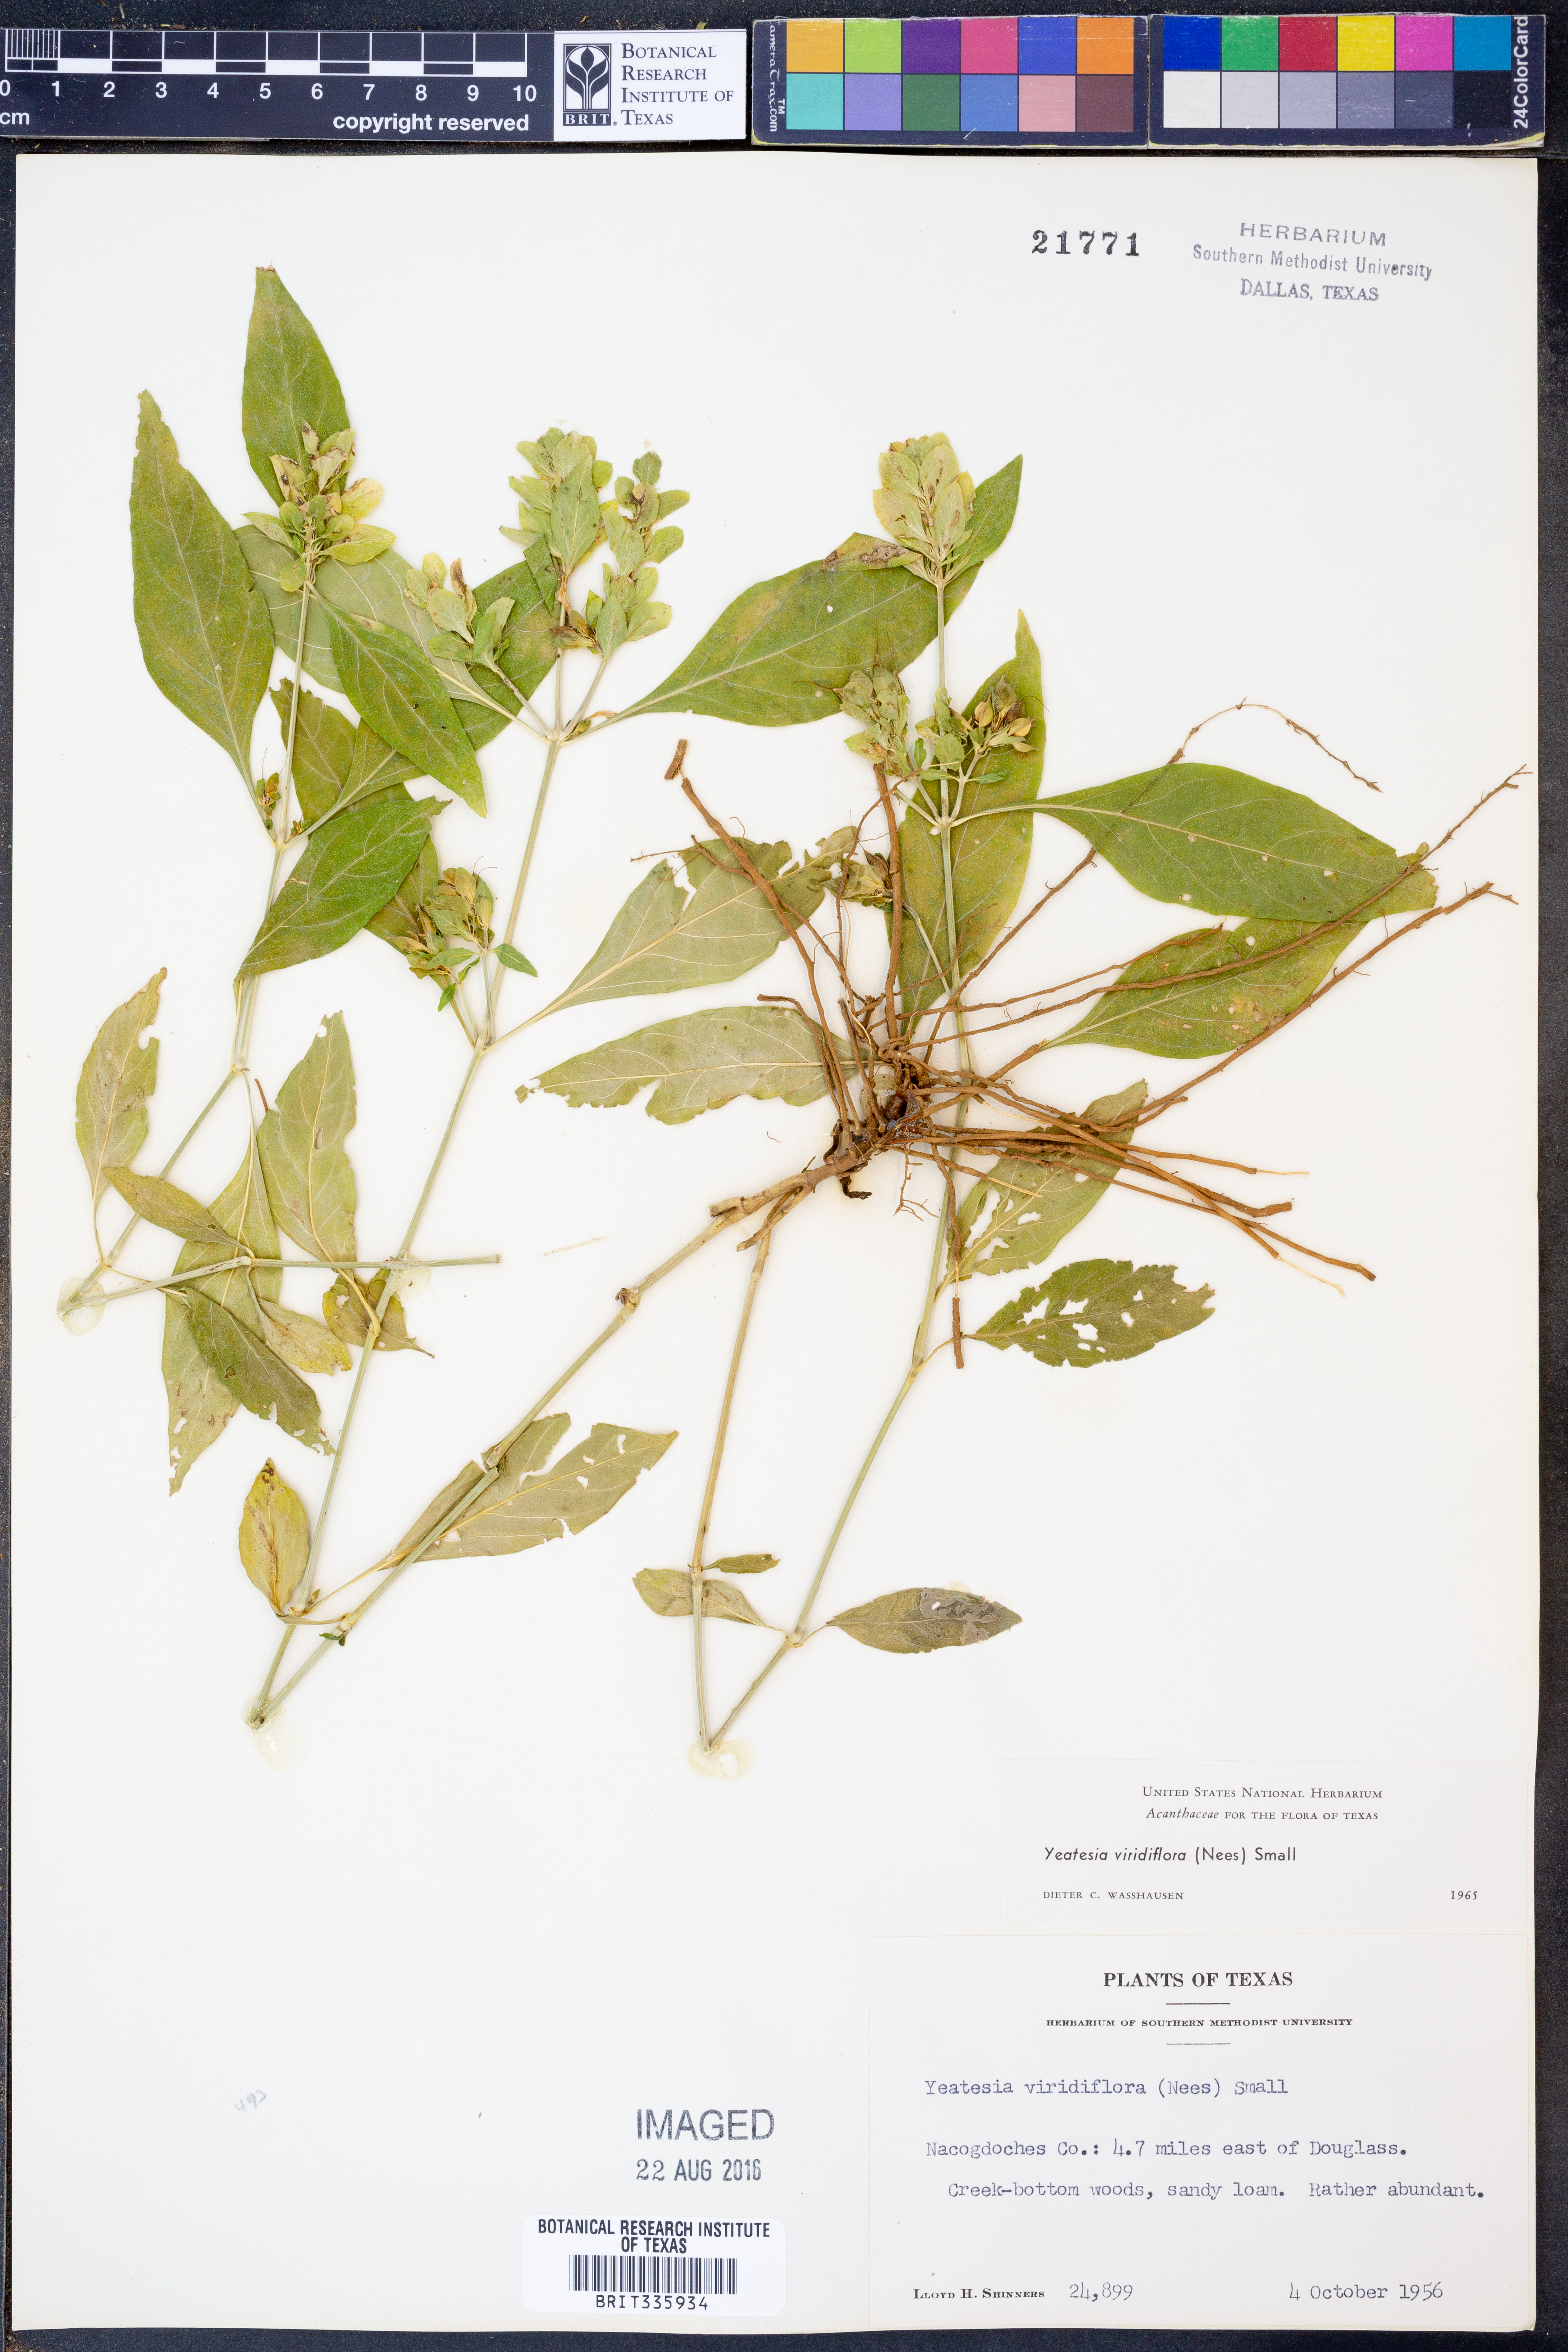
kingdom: Plantae
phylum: Tracheophyta
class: Magnoliopsida
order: Lamiales
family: Acanthaceae
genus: Yeatesia
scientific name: Yeatesia viridiflora
